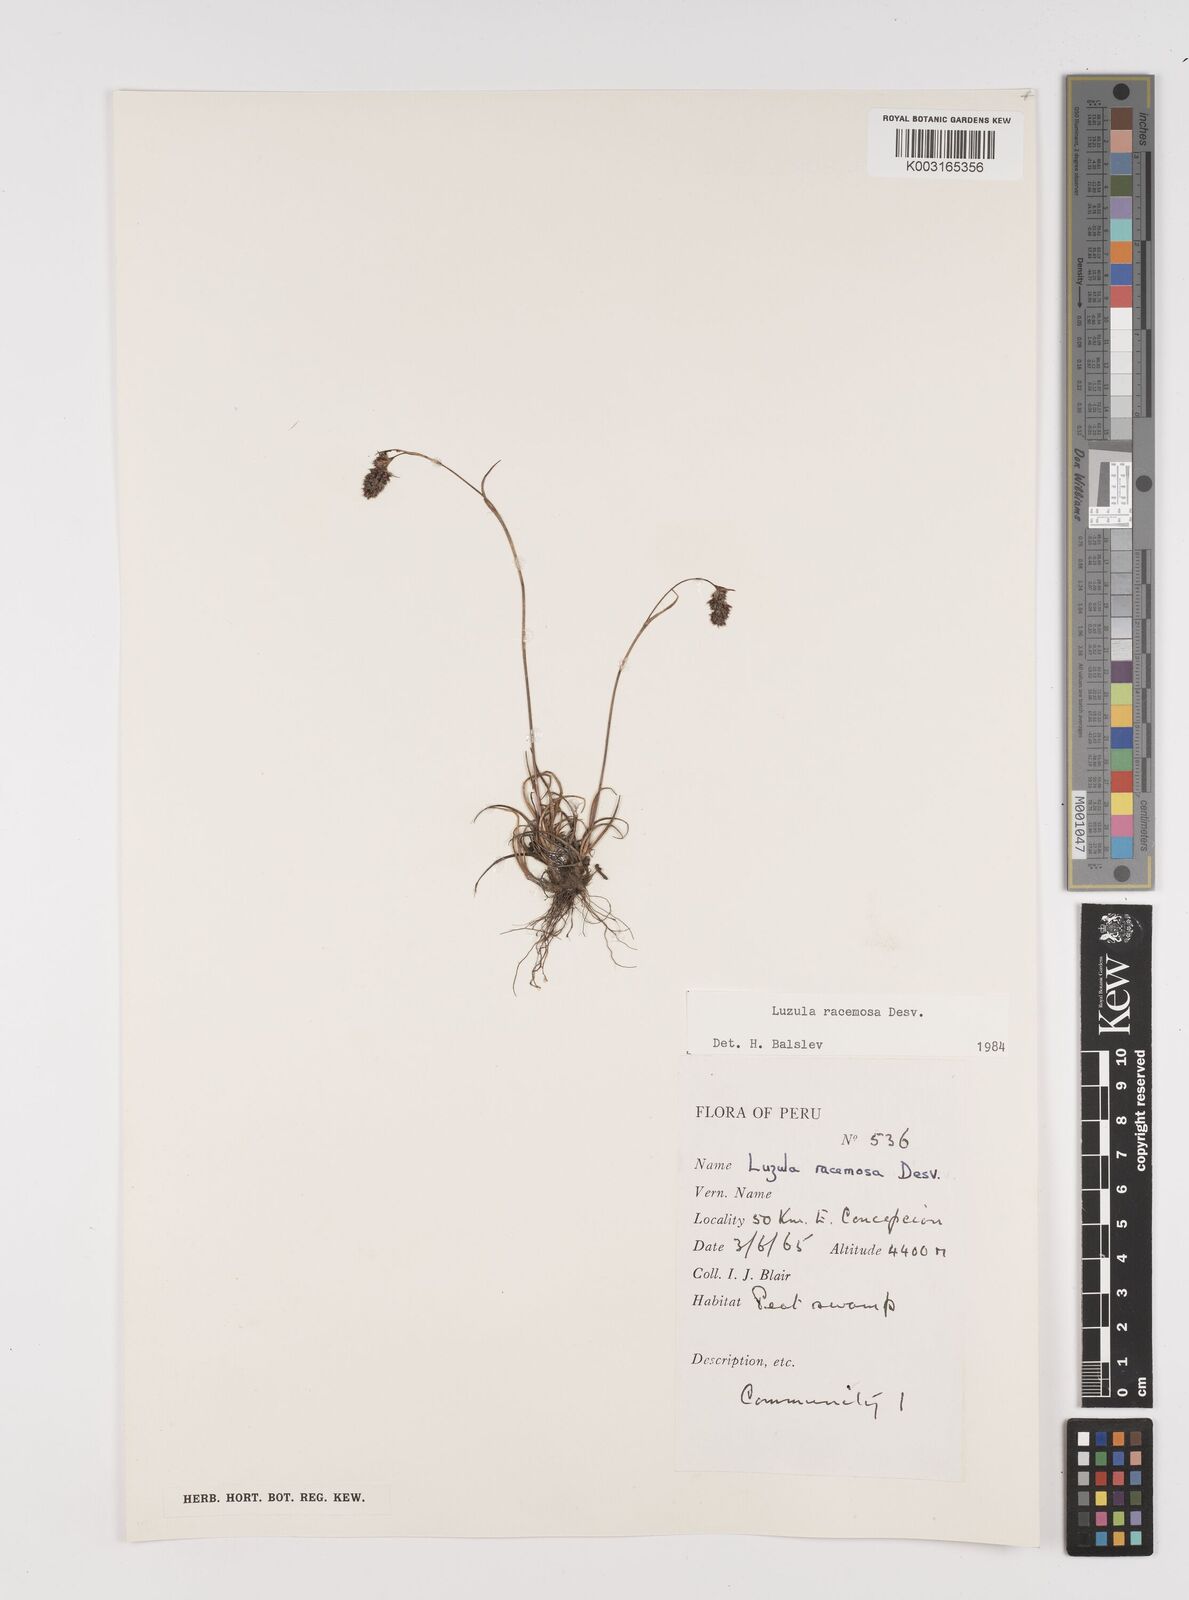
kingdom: Plantae
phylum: Tracheophyta
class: Liliopsida
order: Poales
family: Juncaceae
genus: Luzula
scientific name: Luzula racemosa
